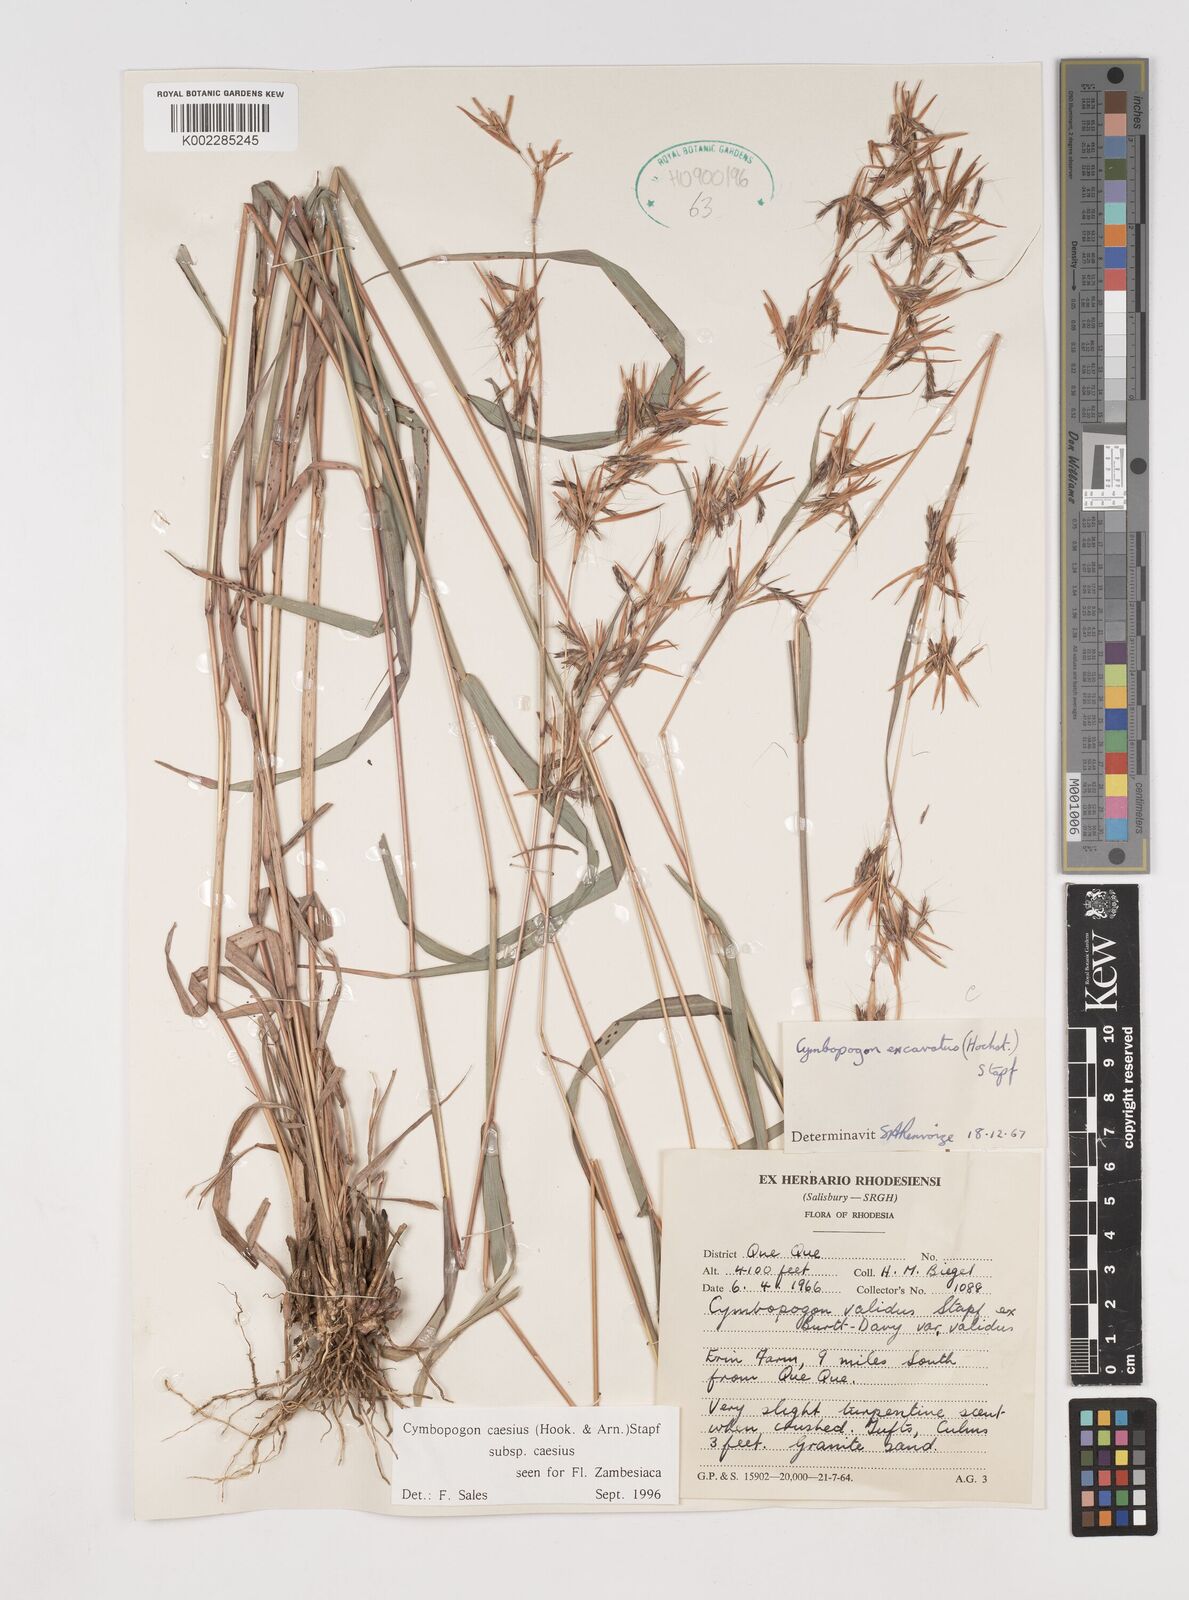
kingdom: Plantae
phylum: Tracheophyta
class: Liliopsida
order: Poales
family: Poaceae
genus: Cymbopogon
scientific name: Cymbopogon caesius
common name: Kachi grass
